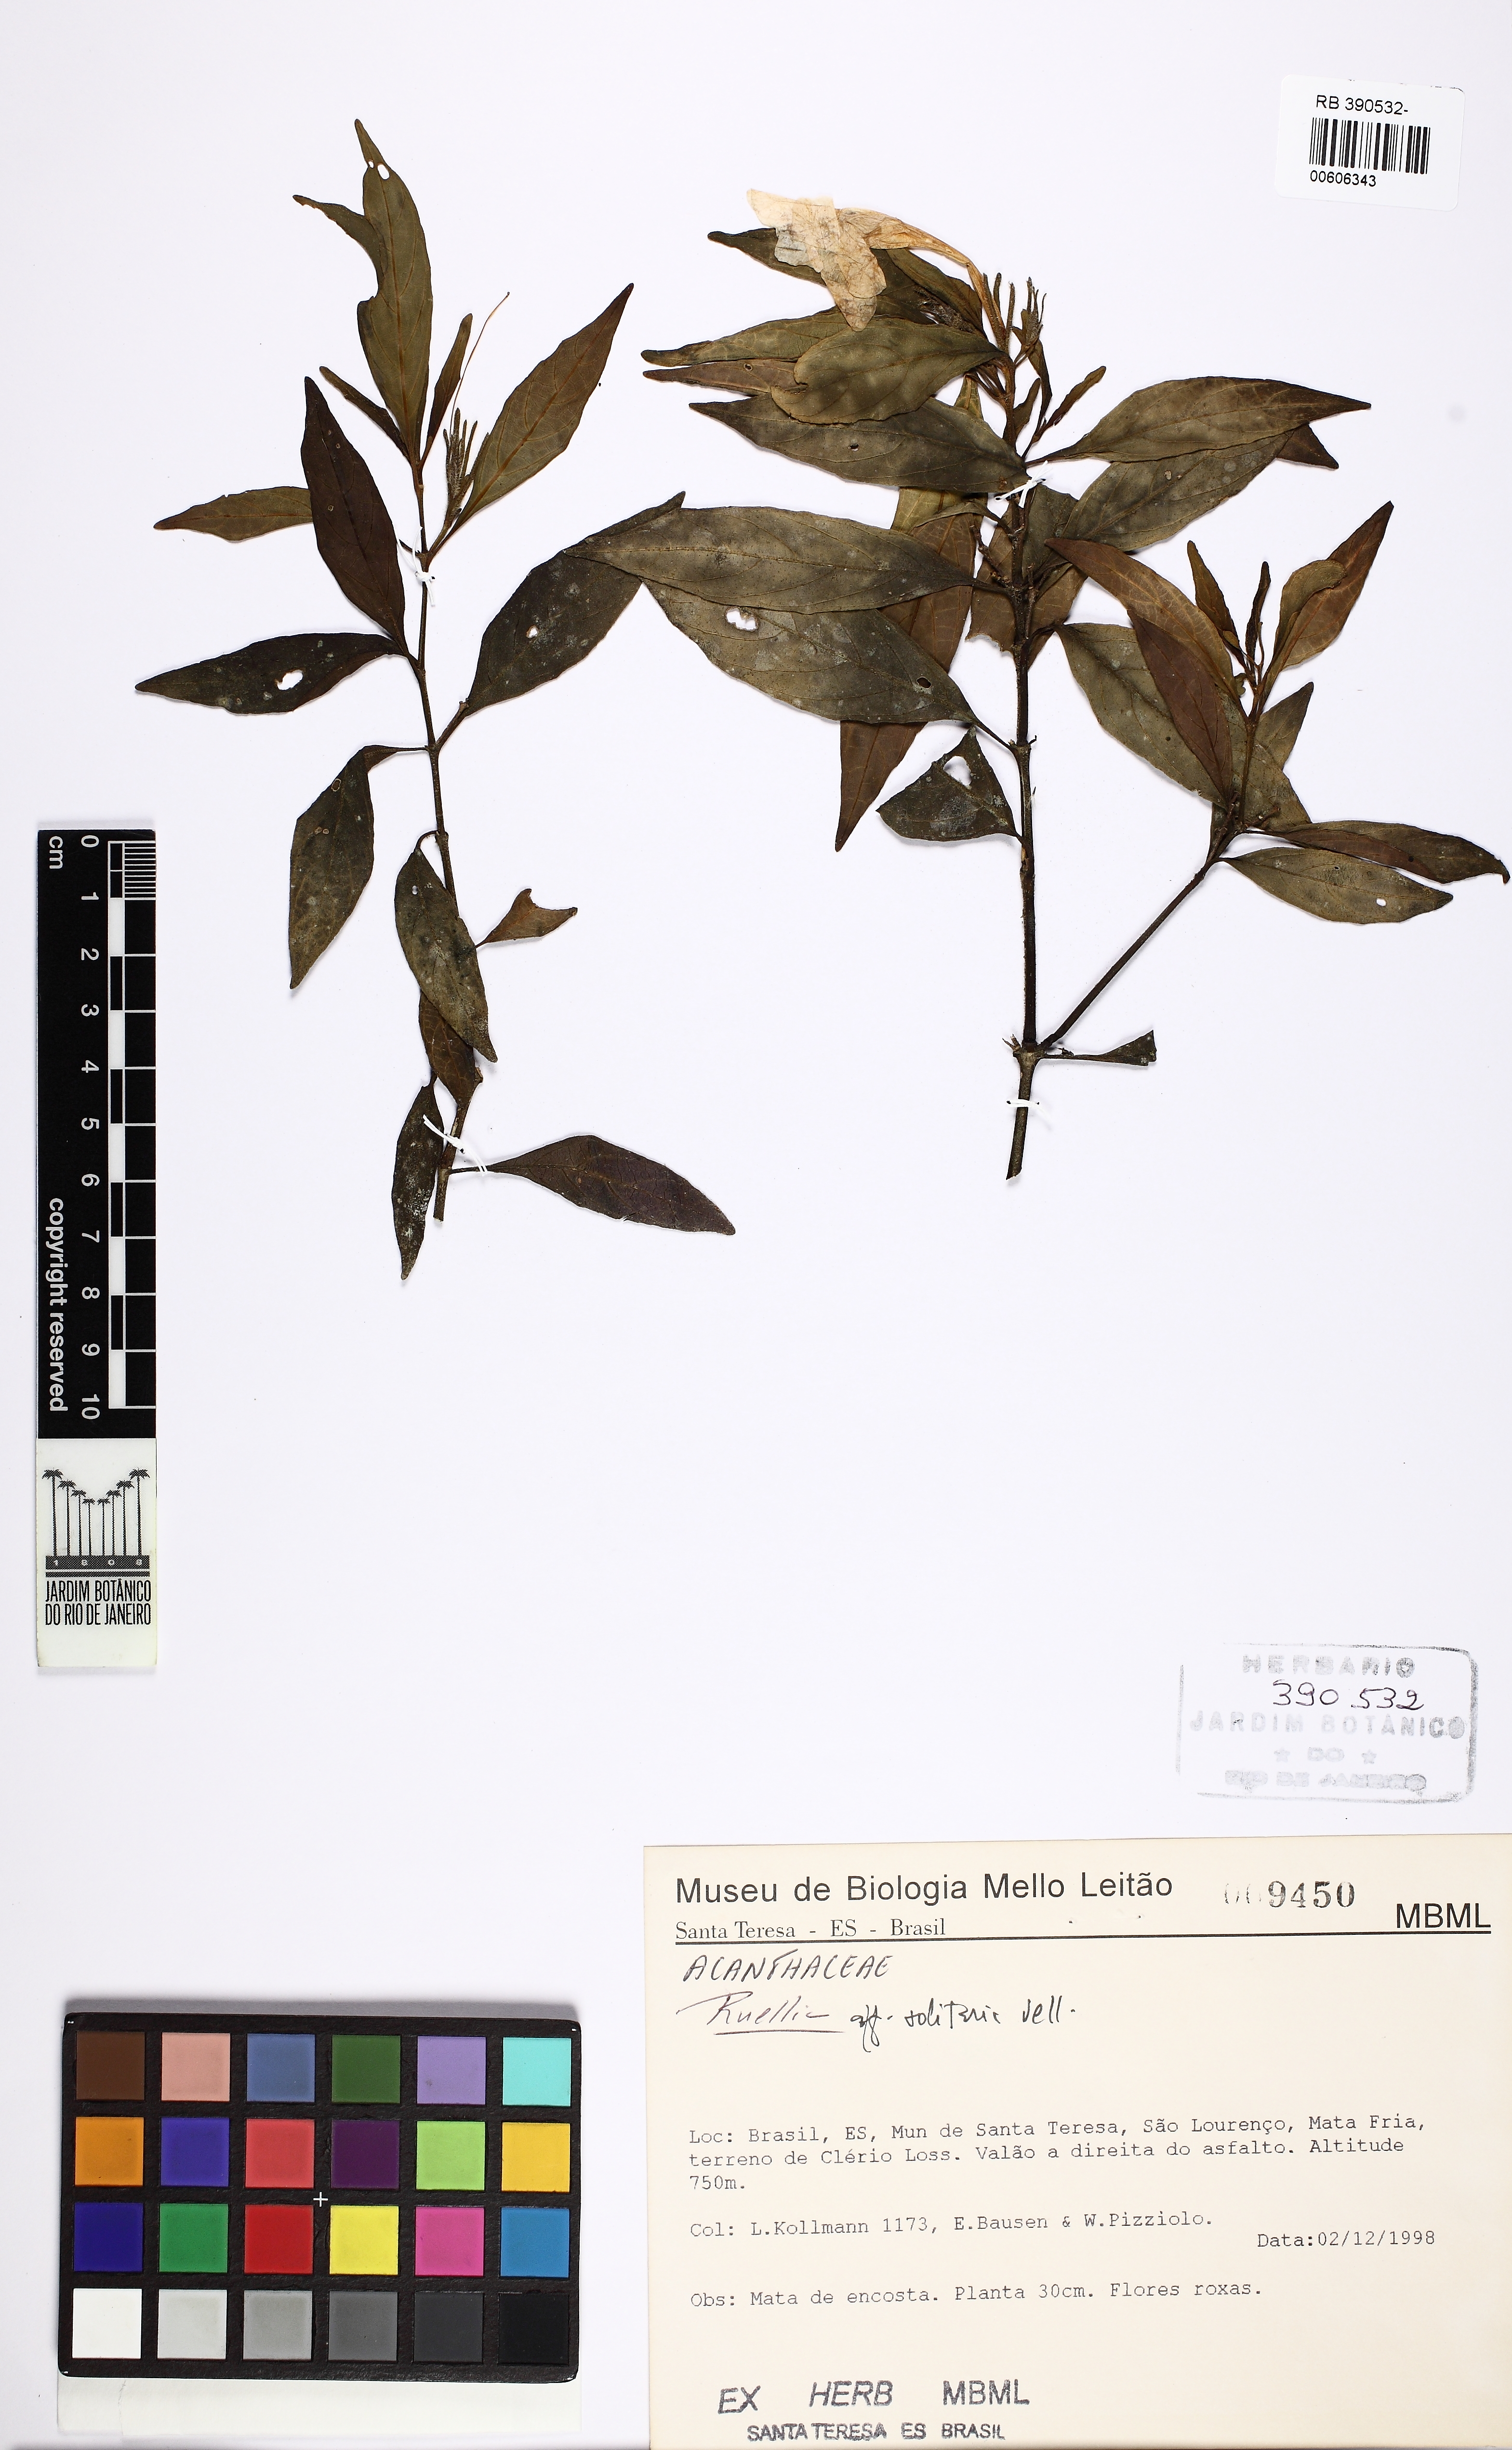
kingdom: Plantae
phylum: Tracheophyta
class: Magnoliopsida
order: Lamiales
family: Acanthaceae
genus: Ruellia
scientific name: Ruellia solitaria
